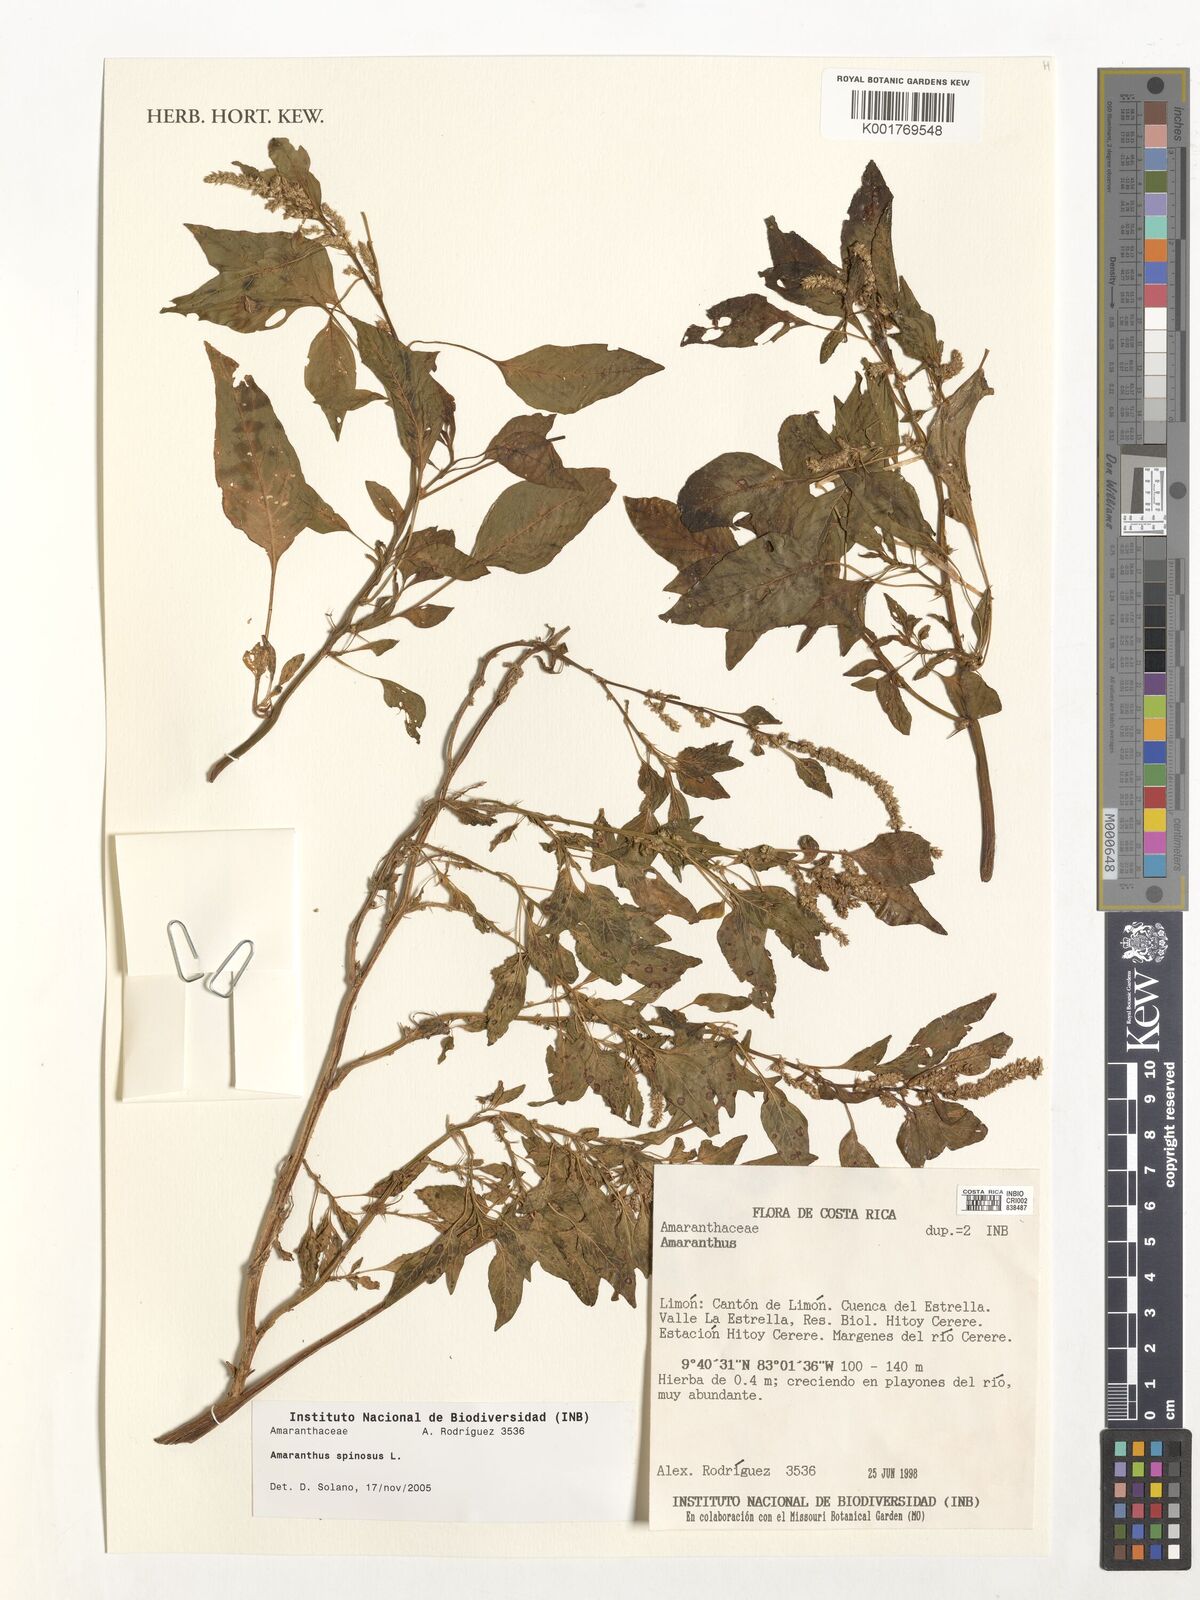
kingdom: Plantae
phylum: Tracheophyta
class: Magnoliopsida
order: Caryophyllales
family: Amaranthaceae
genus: Amaranthus
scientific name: Amaranthus spinosus
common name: Spiny amaranth
